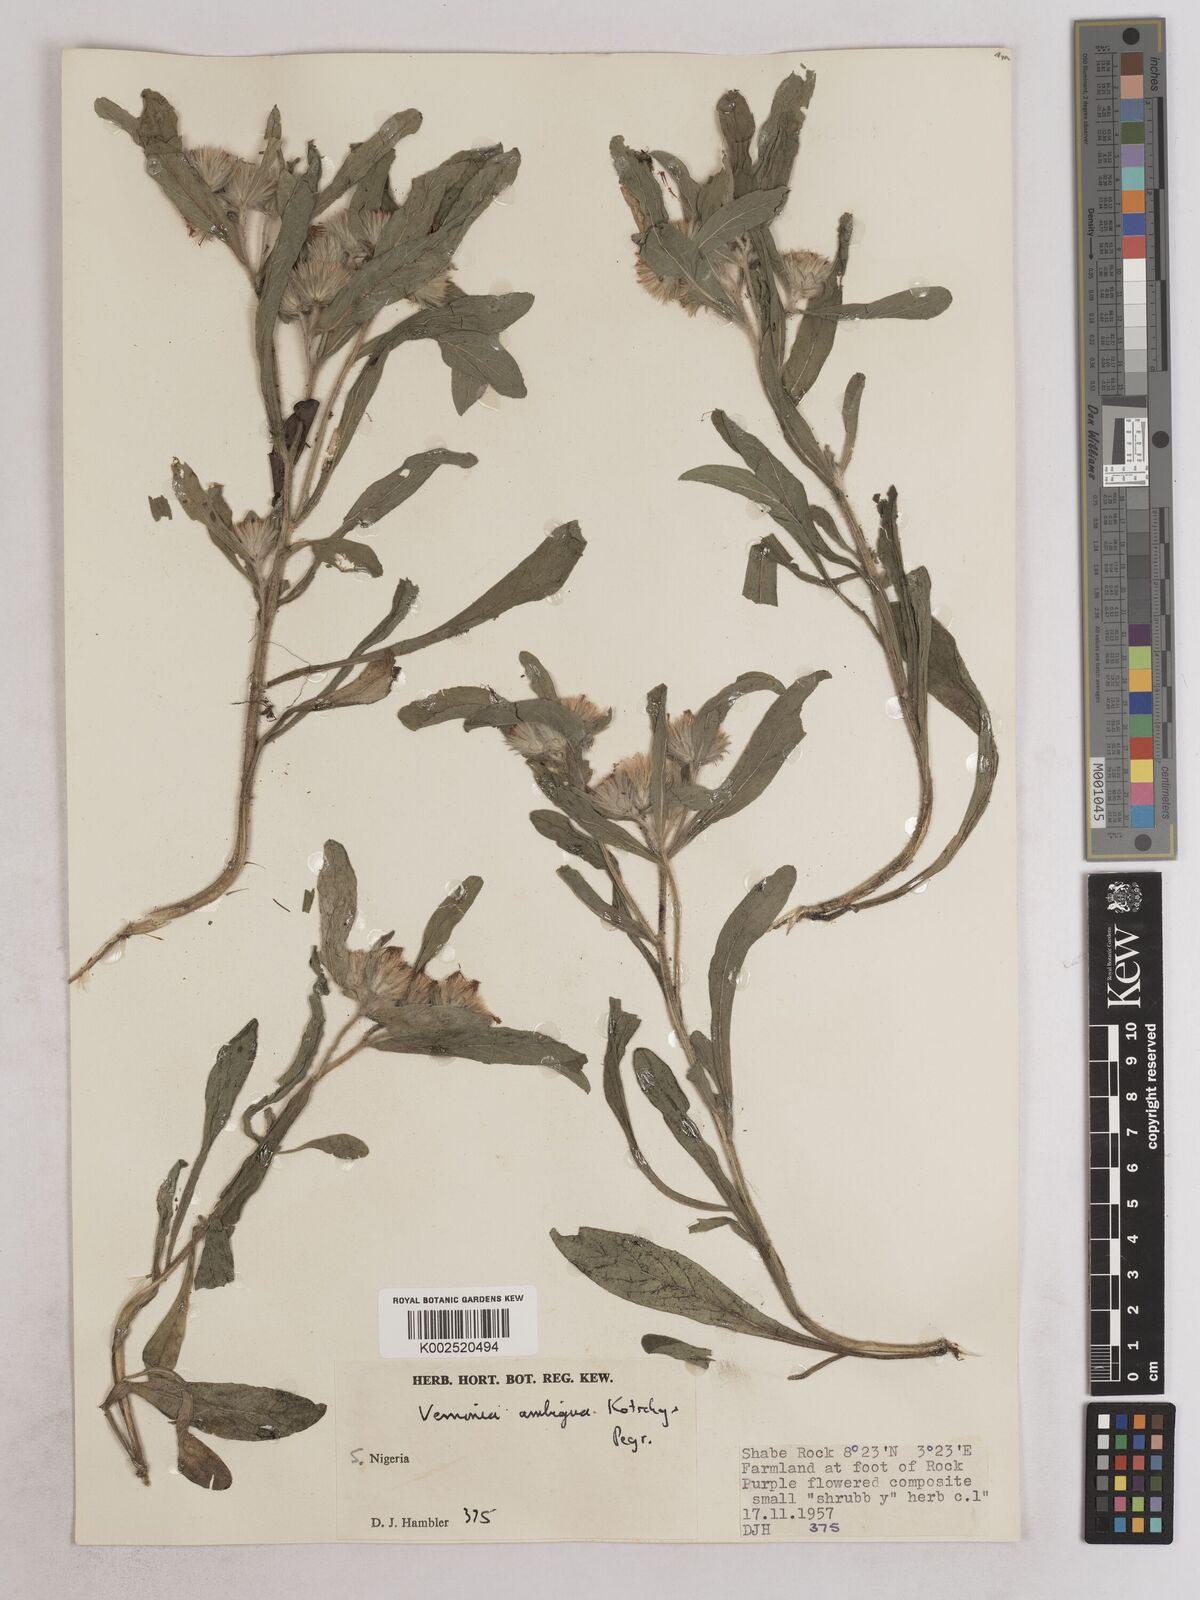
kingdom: Plantae
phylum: Tracheophyta
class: Magnoliopsida
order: Asterales
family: Asteraceae
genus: Vernoniastrum
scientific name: Vernoniastrum ambiguum
